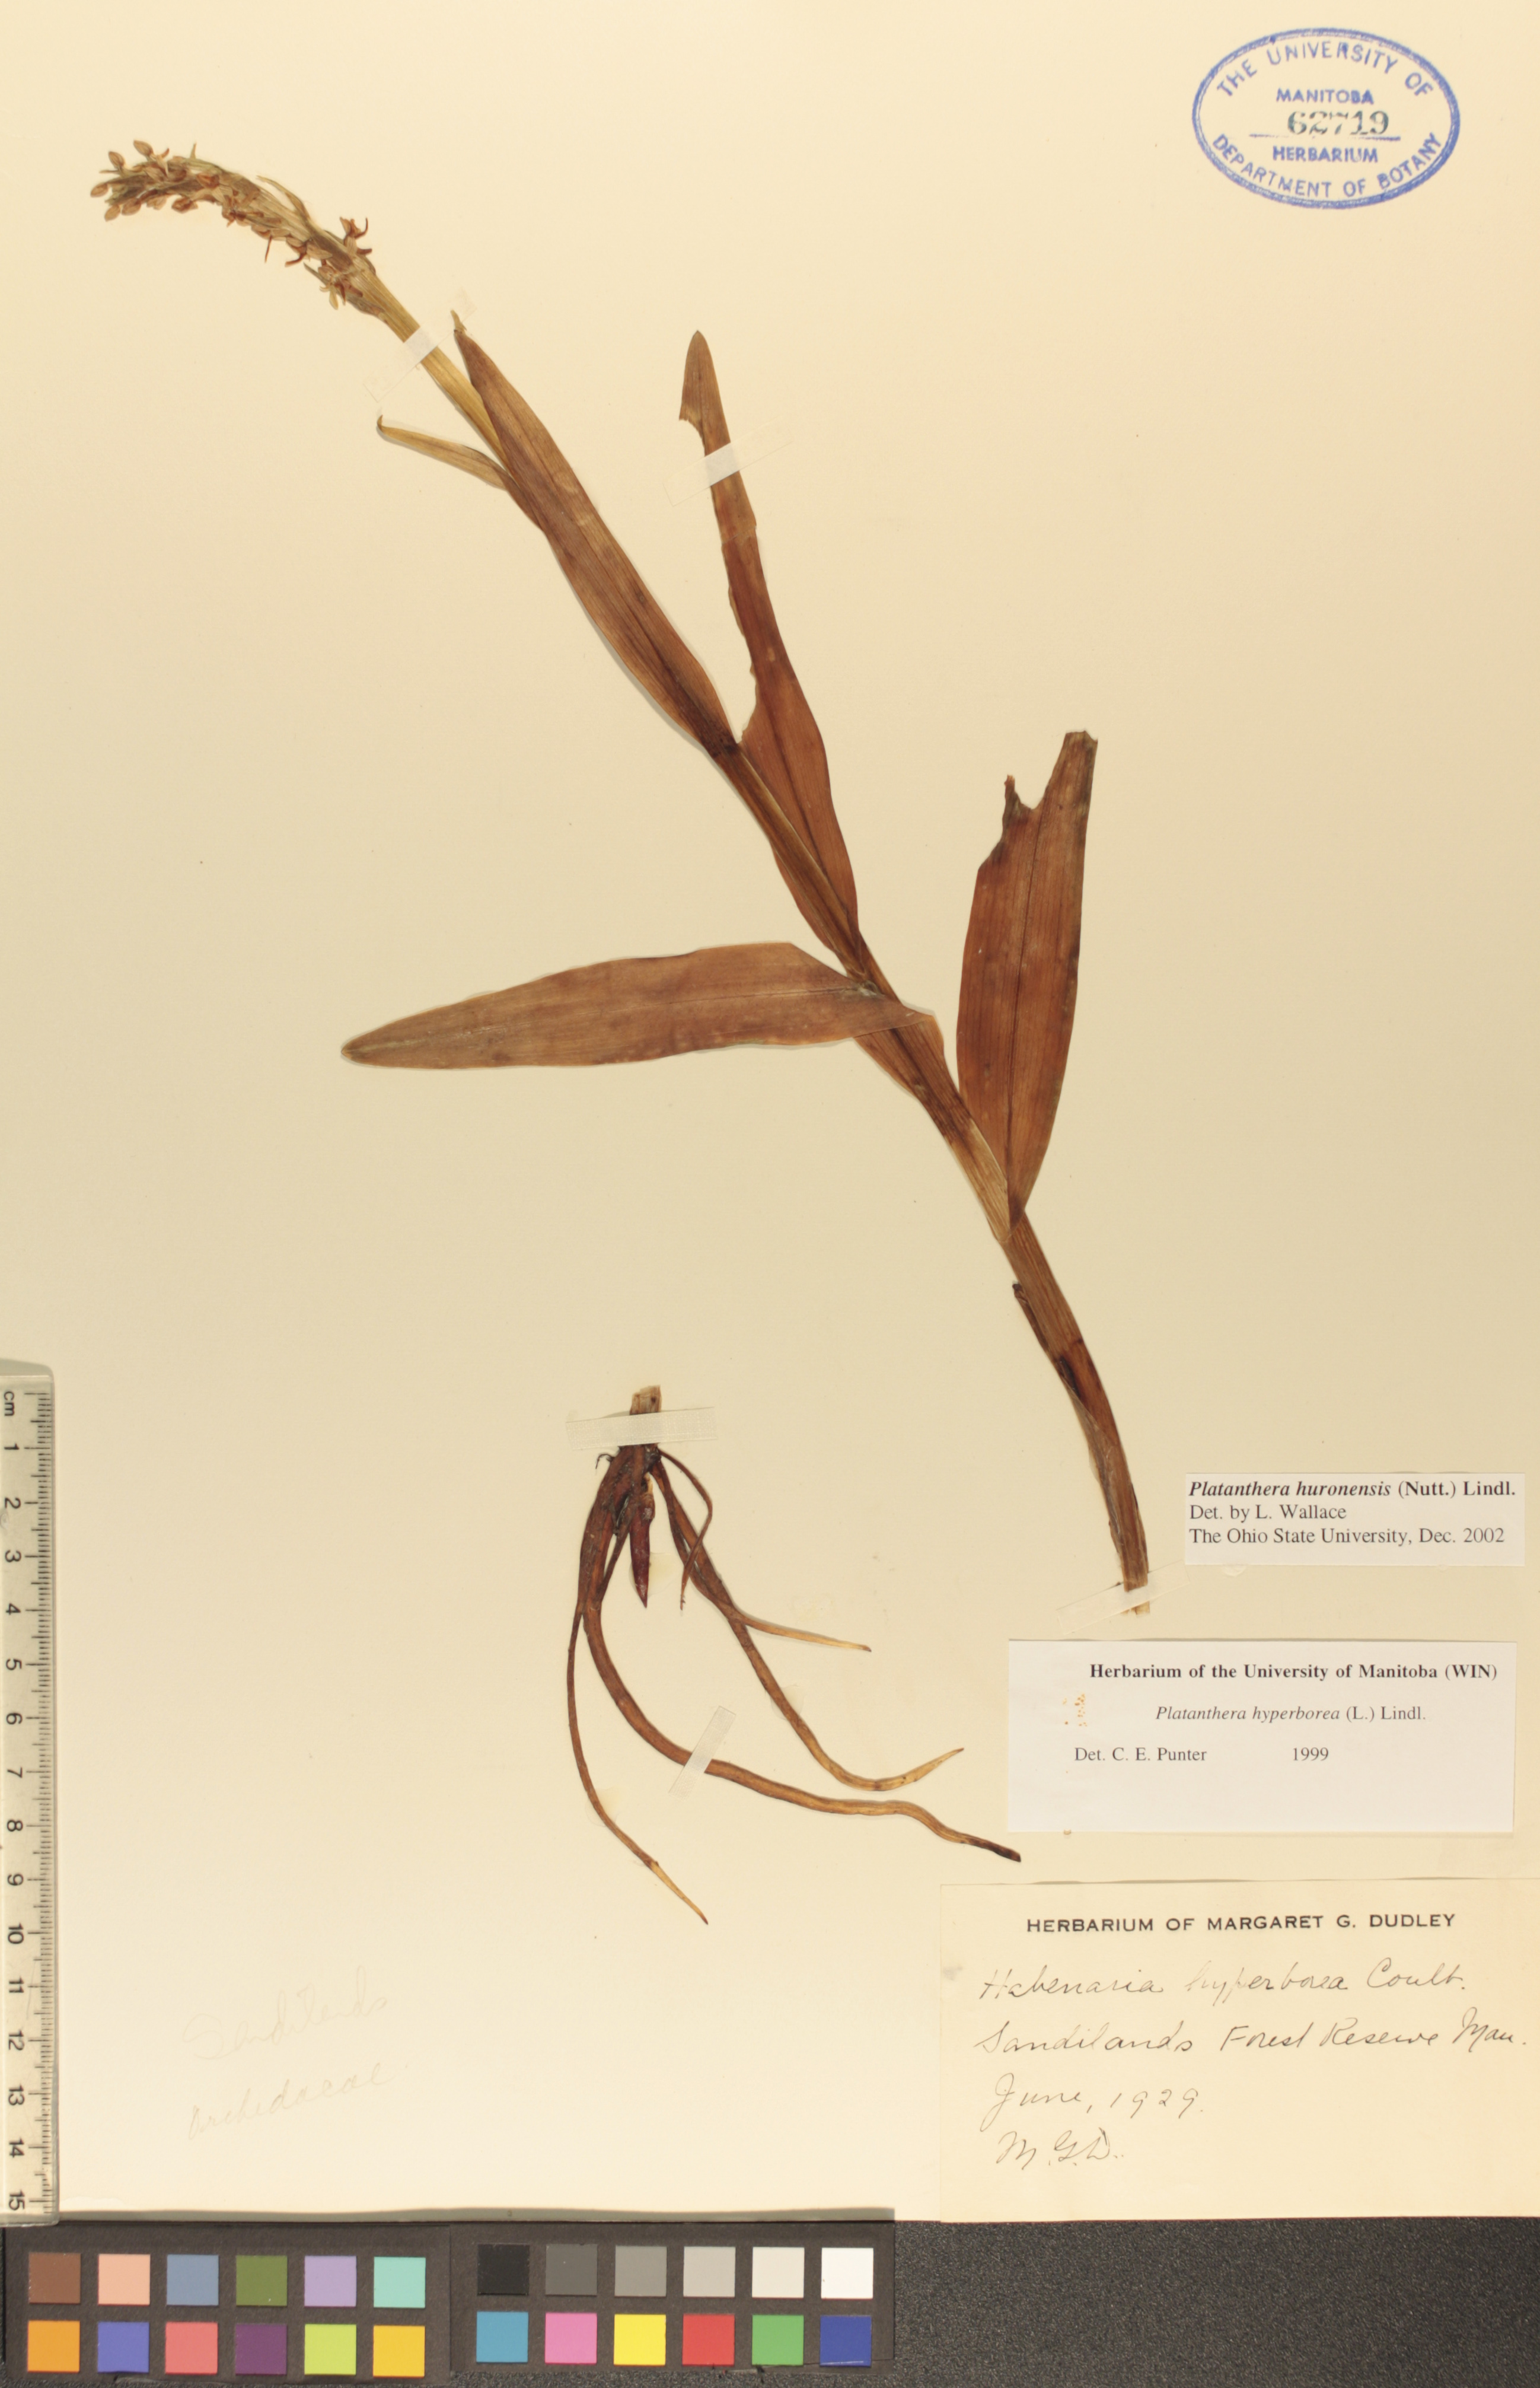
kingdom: Plantae
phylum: Tracheophyta
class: Liliopsida
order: Asparagales
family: Orchidaceae
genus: Platanthera
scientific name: Platanthera huronensis
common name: Fragrant green orchid
